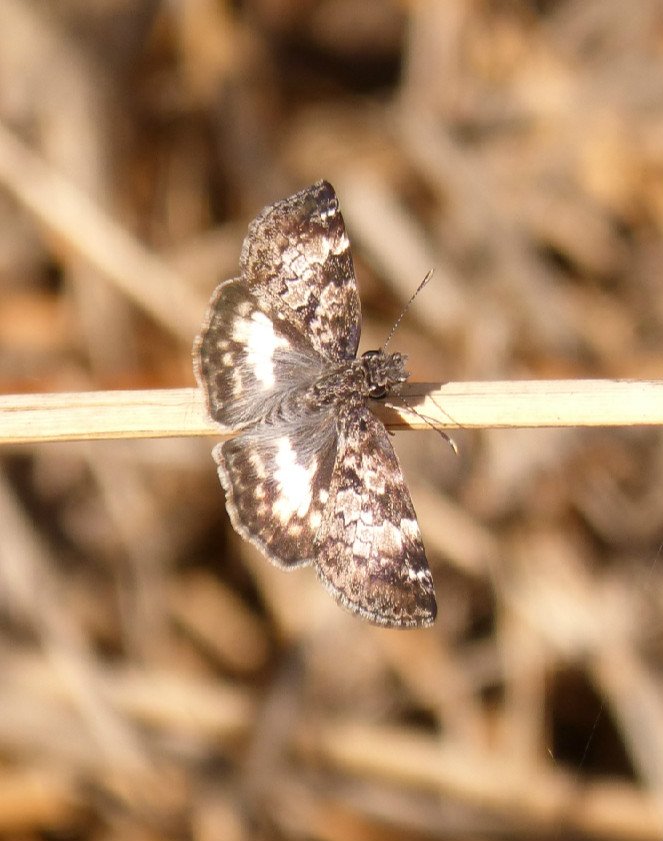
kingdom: Animalia
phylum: Arthropoda
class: Insecta
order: Lepidoptera
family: Hesperiidae
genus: Chiomara
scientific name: Chiomara asychis
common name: White-patched Skipper
